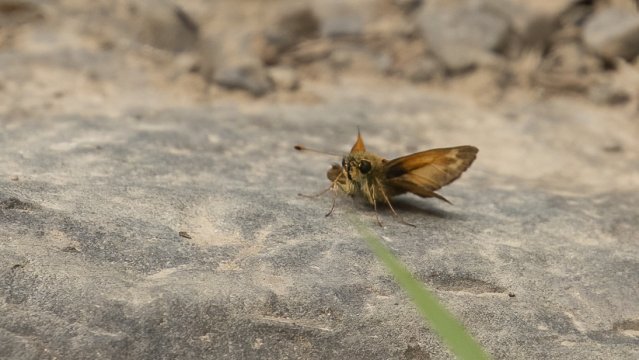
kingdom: Animalia
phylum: Arthropoda
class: Insecta
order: Lepidoptera
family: Hesperiidae
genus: Spialia
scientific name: Spialia galba
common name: Indian Skipper
